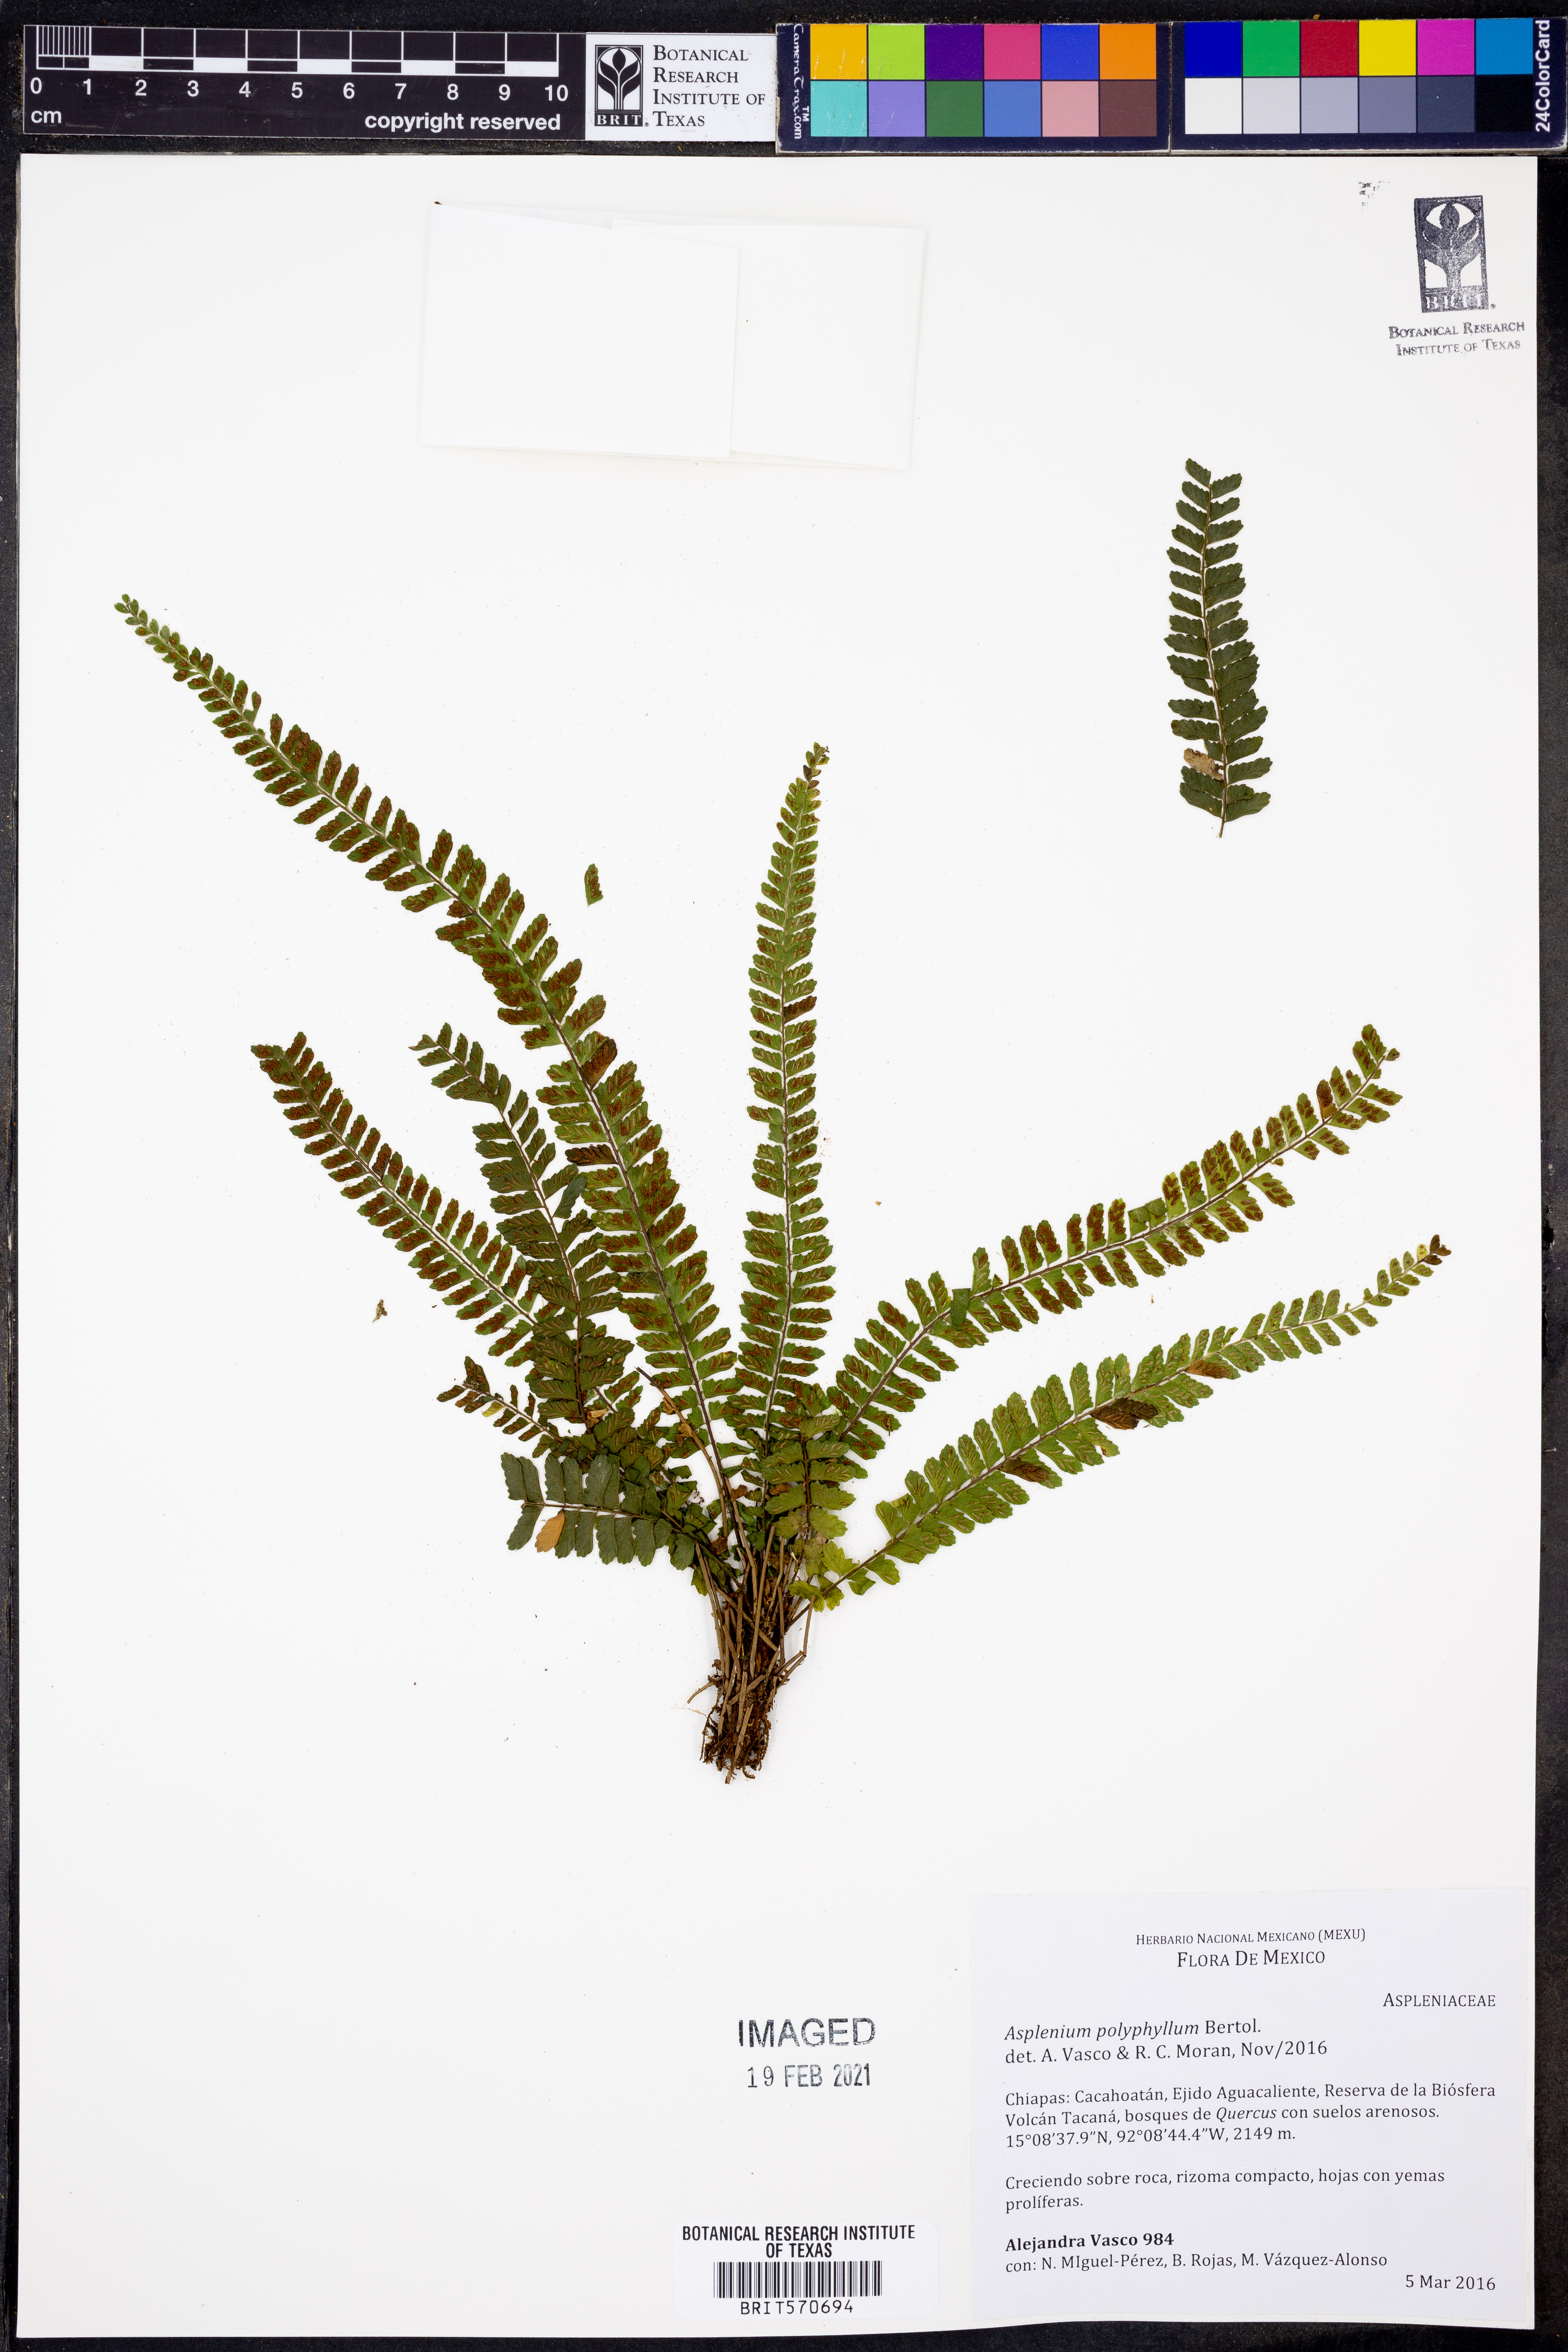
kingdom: Plantae
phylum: Tracheophyta
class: Polypodiopsida
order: Polypodiales
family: Aspleniaceae
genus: Asplenium
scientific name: Asplenium acuminatum
